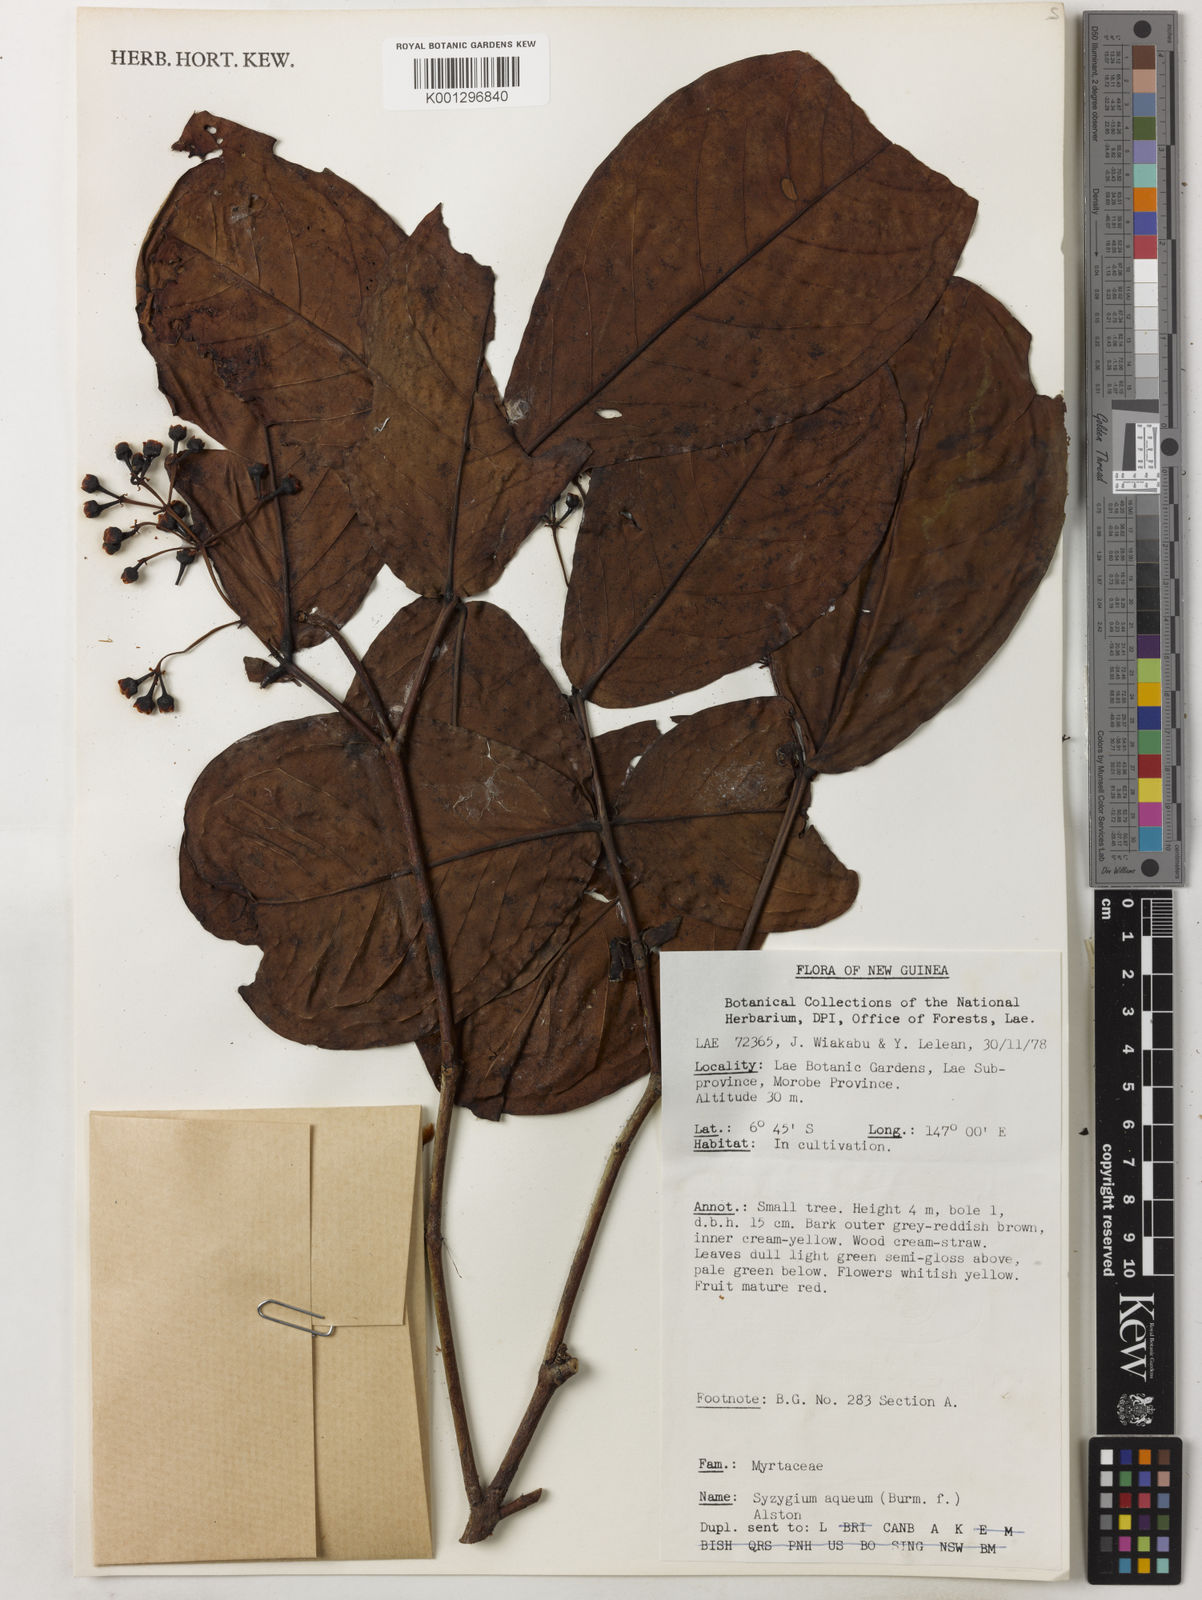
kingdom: Plantae
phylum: Tracheophyta
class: Magnoliopsida
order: Myrtales
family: Myrtaceae
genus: Syzygium
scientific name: Syzygium aqueum
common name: Water-apple
